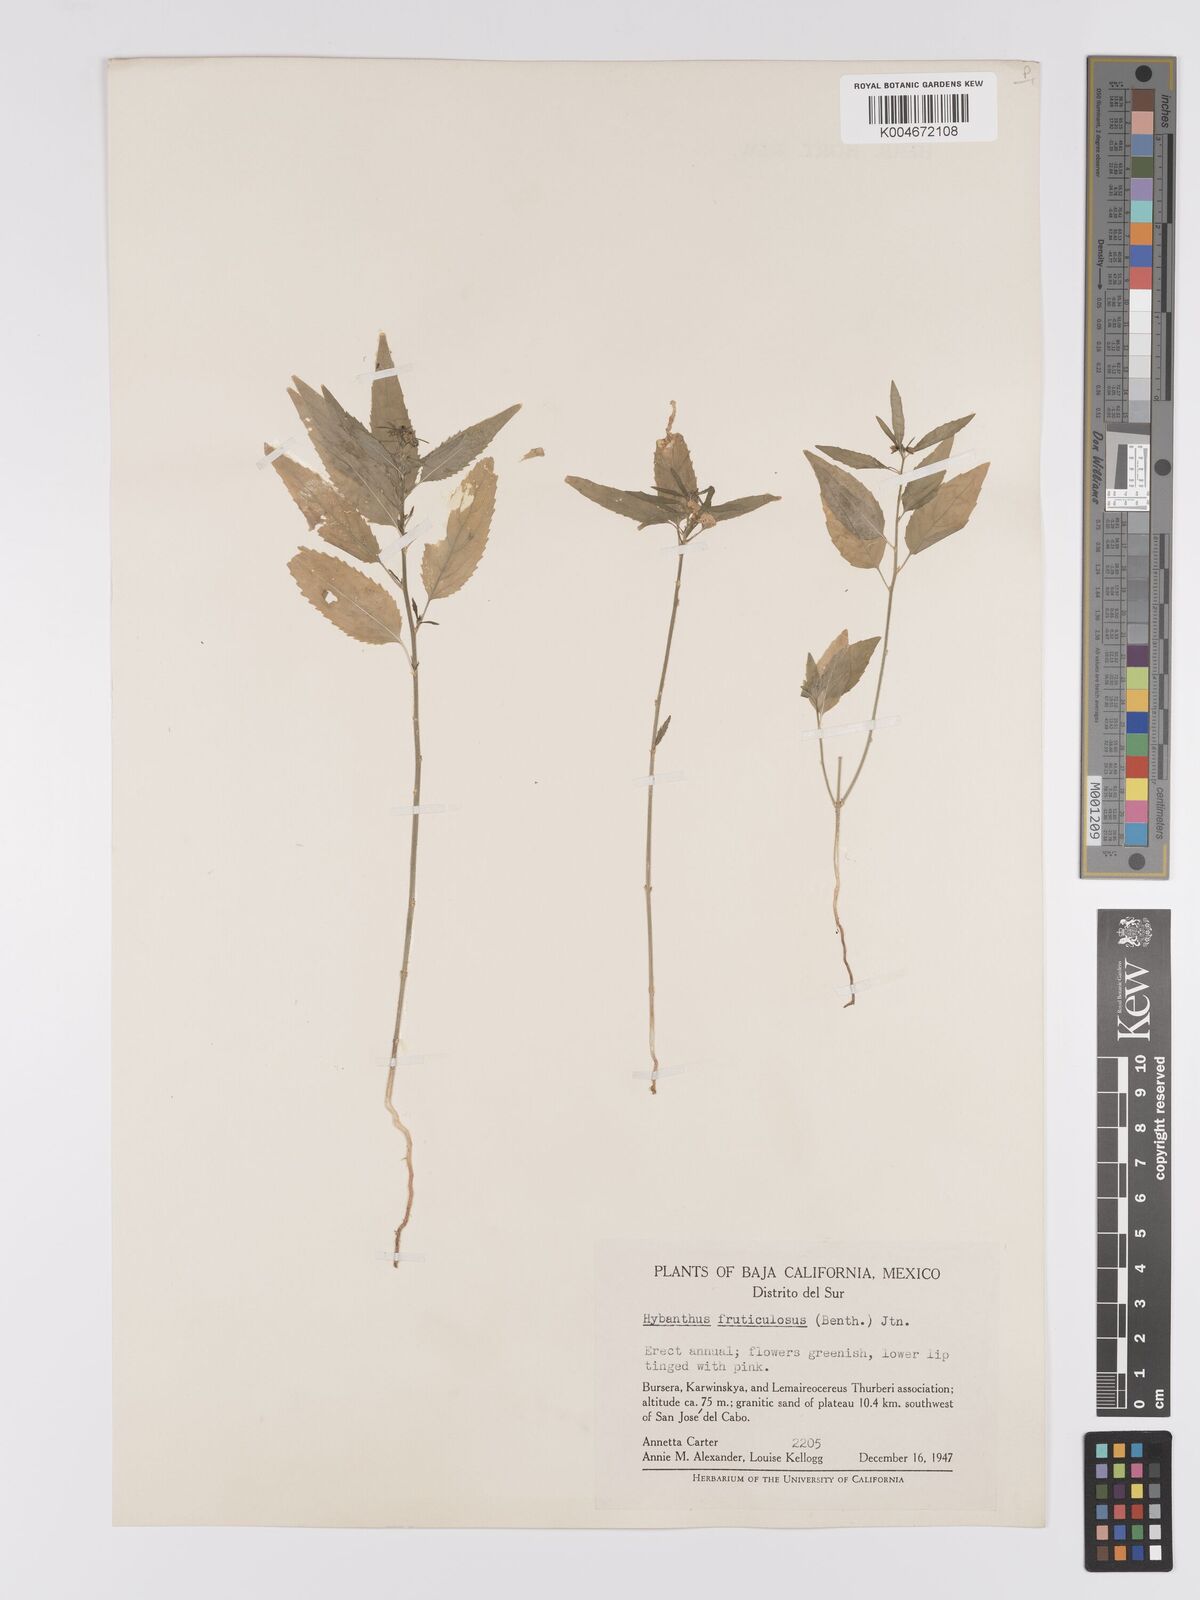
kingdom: Plantae
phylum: Tracheophyta
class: Magnoliopsida
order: Malpighiales
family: Violaceae
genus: Hybanthus
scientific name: Hybanthus fruticulosus
